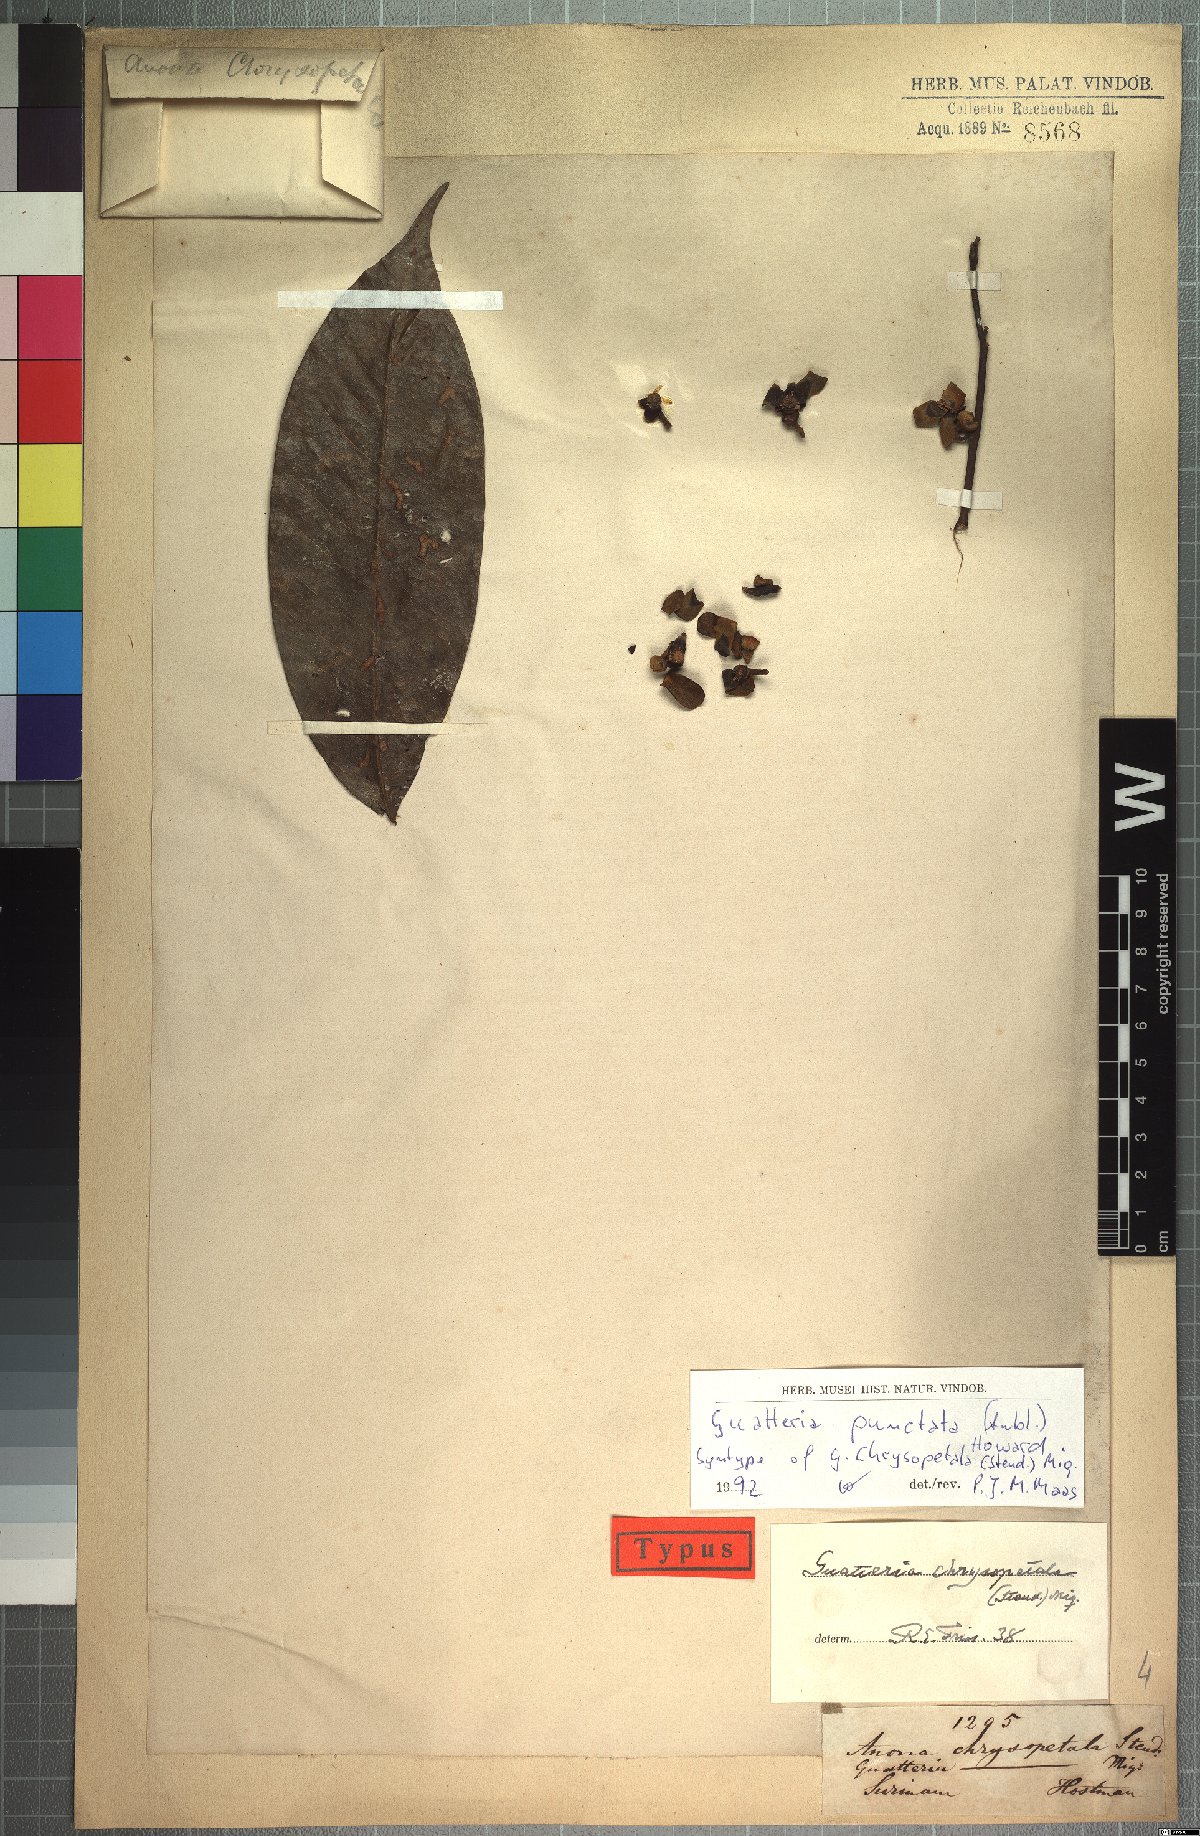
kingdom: Plantae
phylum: Tracheophyta
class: Magnoliopsida
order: Magnoliales
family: Annonaceae
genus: Guatteria
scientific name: Guatteria punctata
